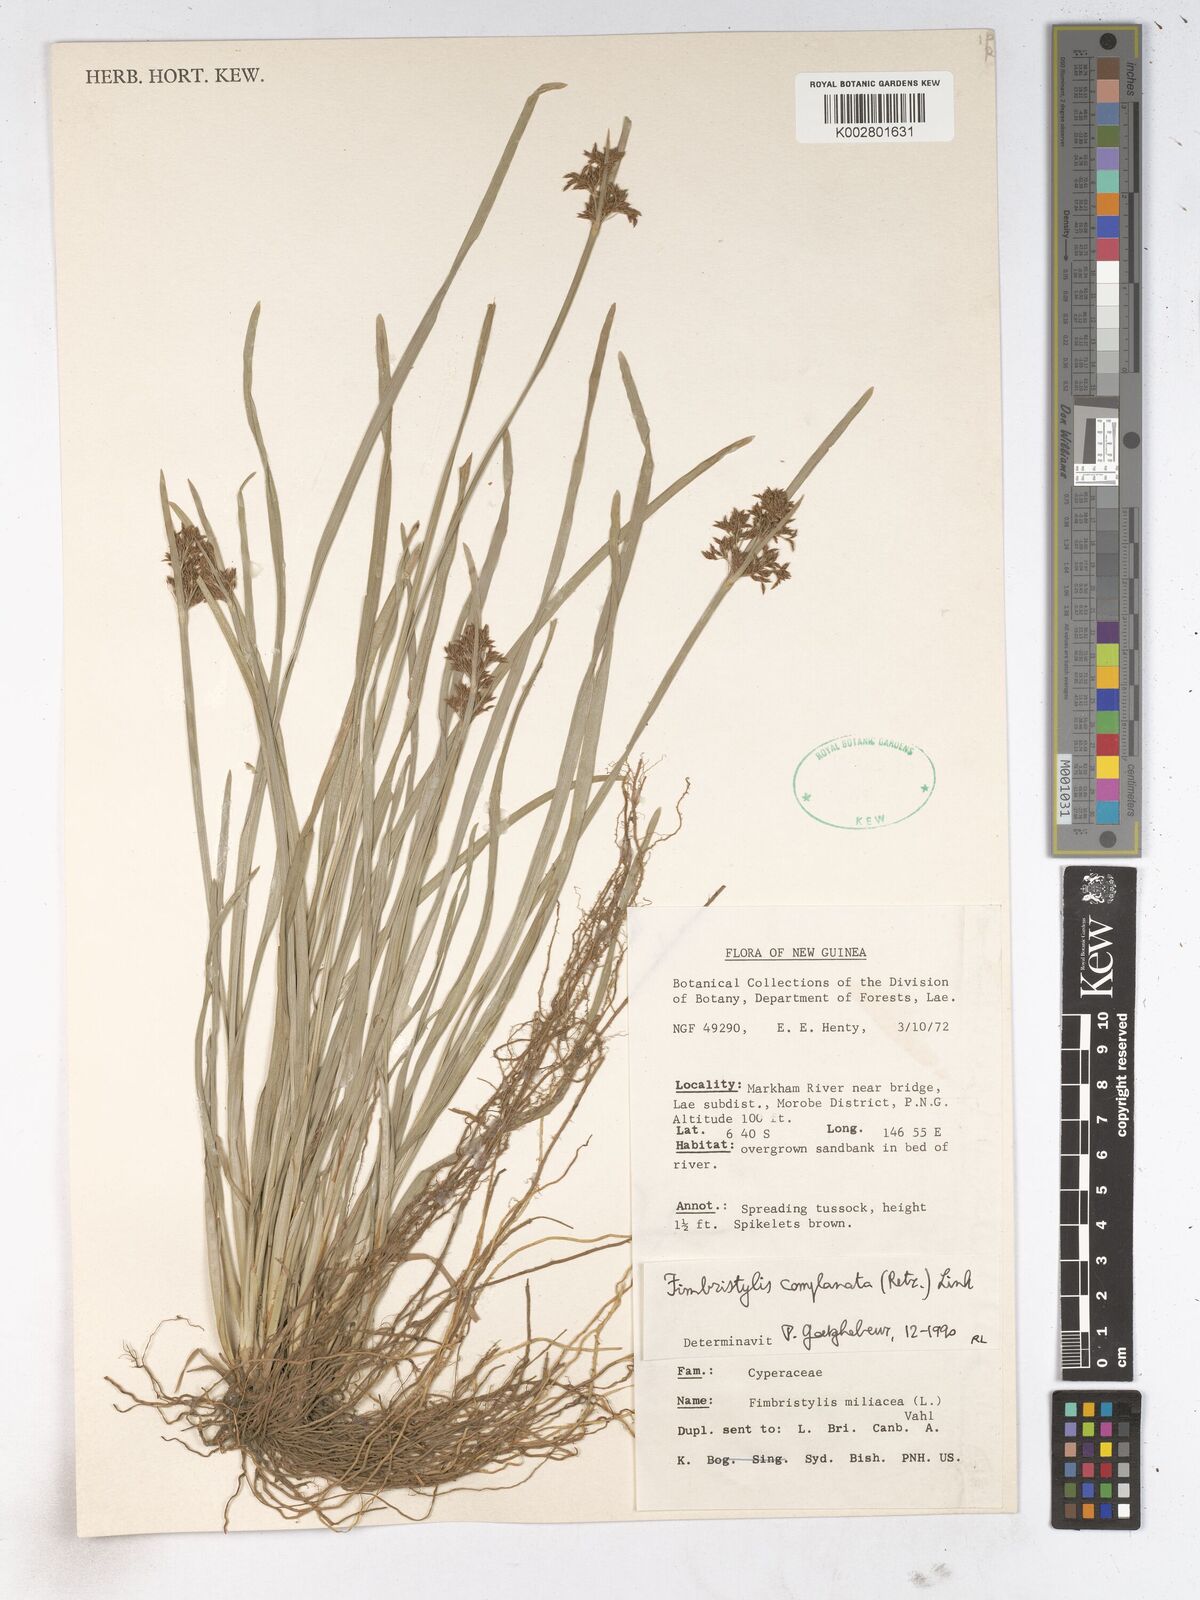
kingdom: Plantae
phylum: Tracheophyta
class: Liliopsida
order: Poales
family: Cyperaceae
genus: Fimbristylis
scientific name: Fimbristylis complanata
